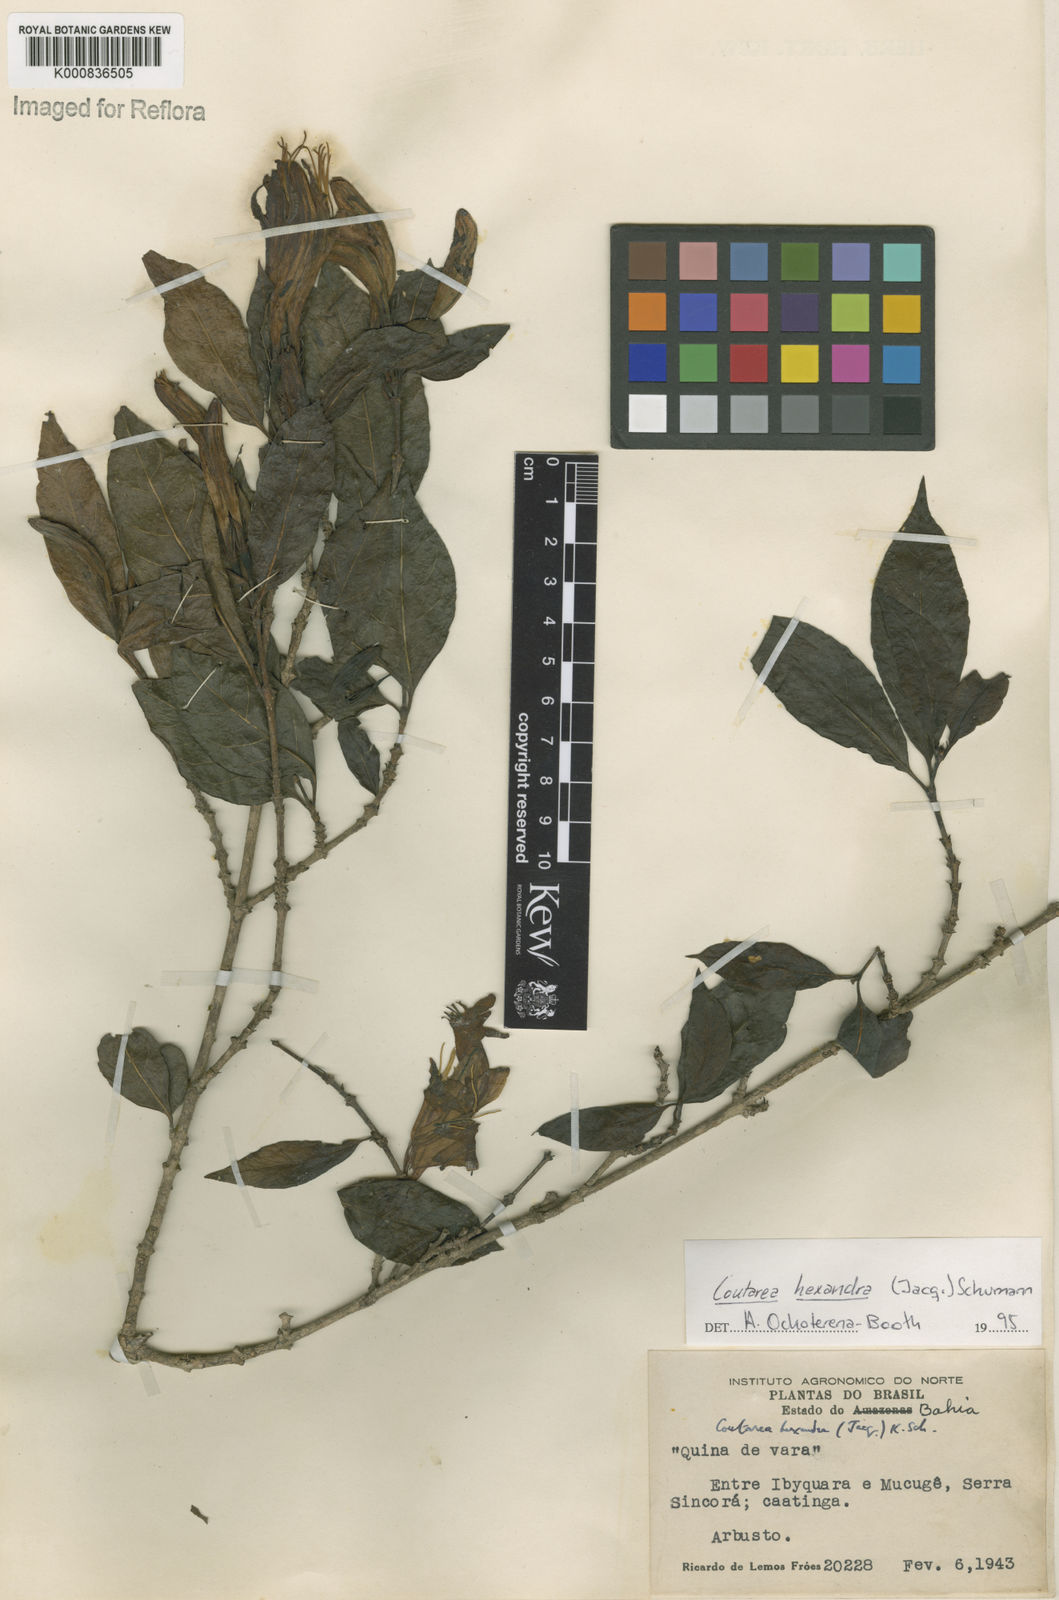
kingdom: Plantae
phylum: Tracheophyta
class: Magnoliopsida
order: Gentianales
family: Rubiaceae
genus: Coutarea
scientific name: Coutarea hexandra
